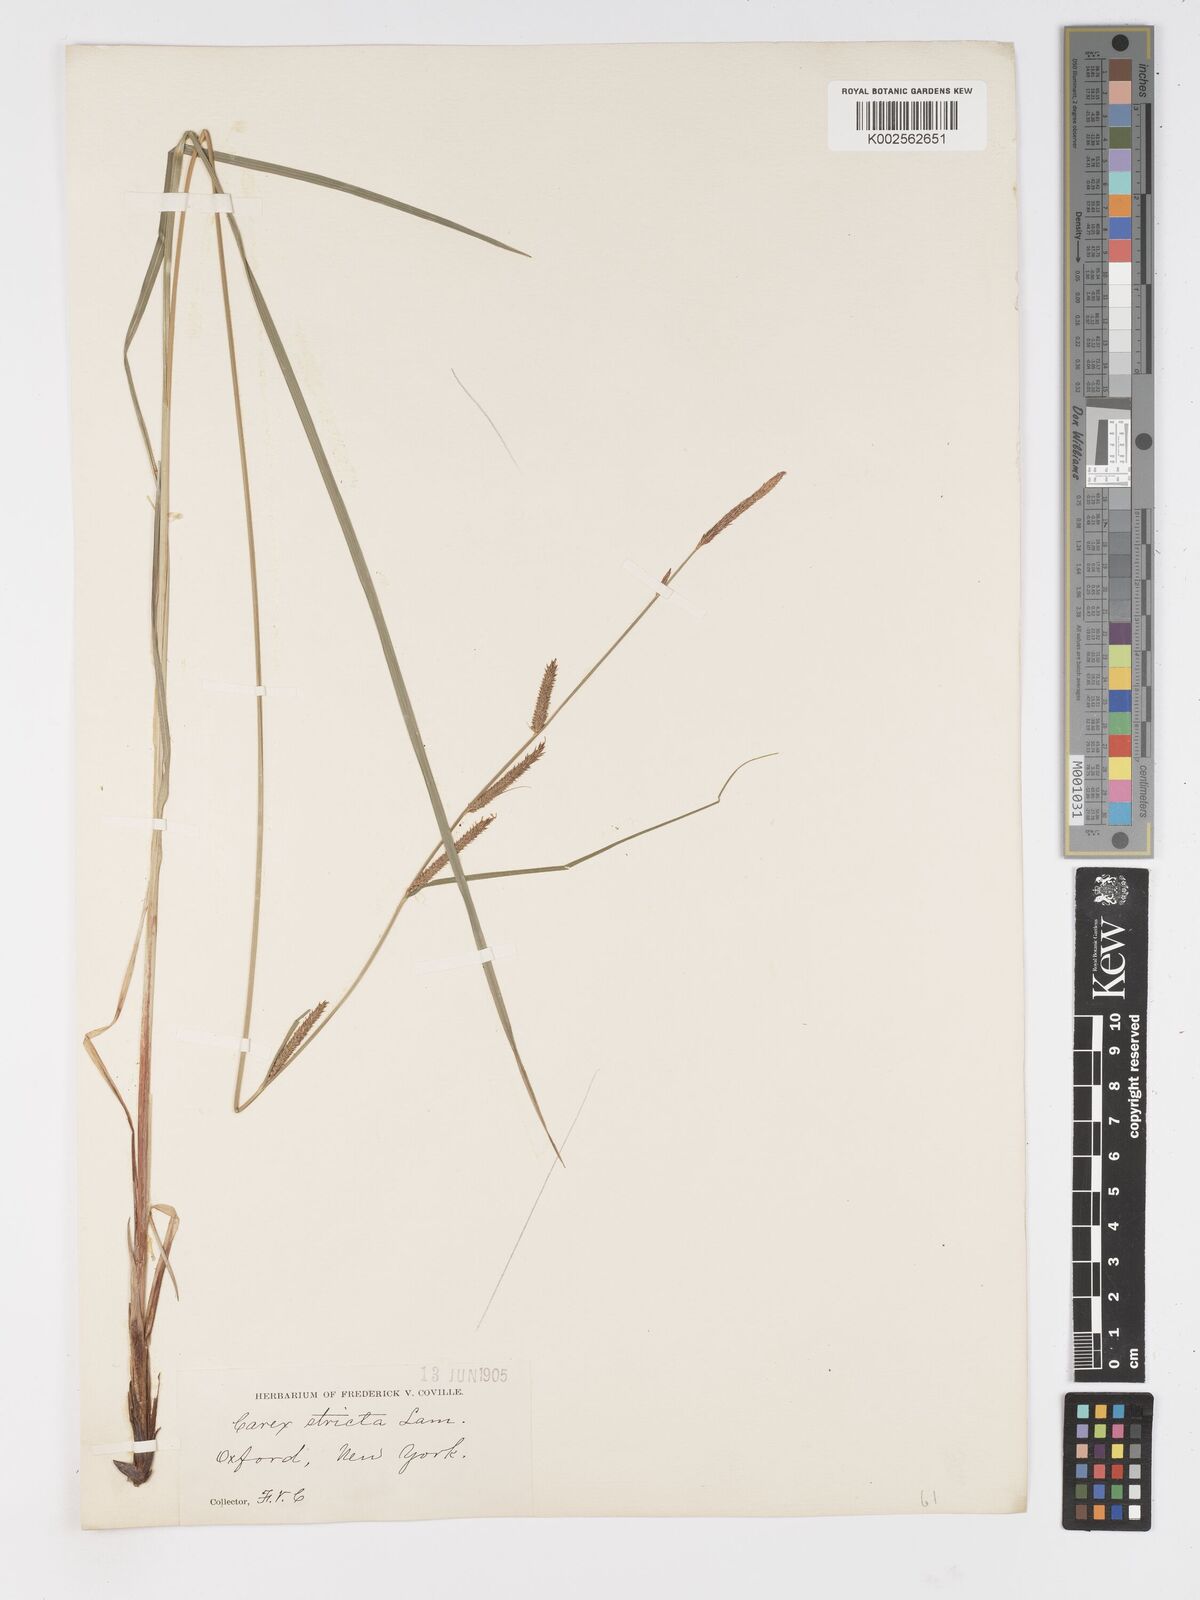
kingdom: Plantae
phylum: Tracheophyta
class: Liliopsida
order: Poales
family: Cyperaceae
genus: Carex
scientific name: Carex stricta
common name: Hummock sedge
